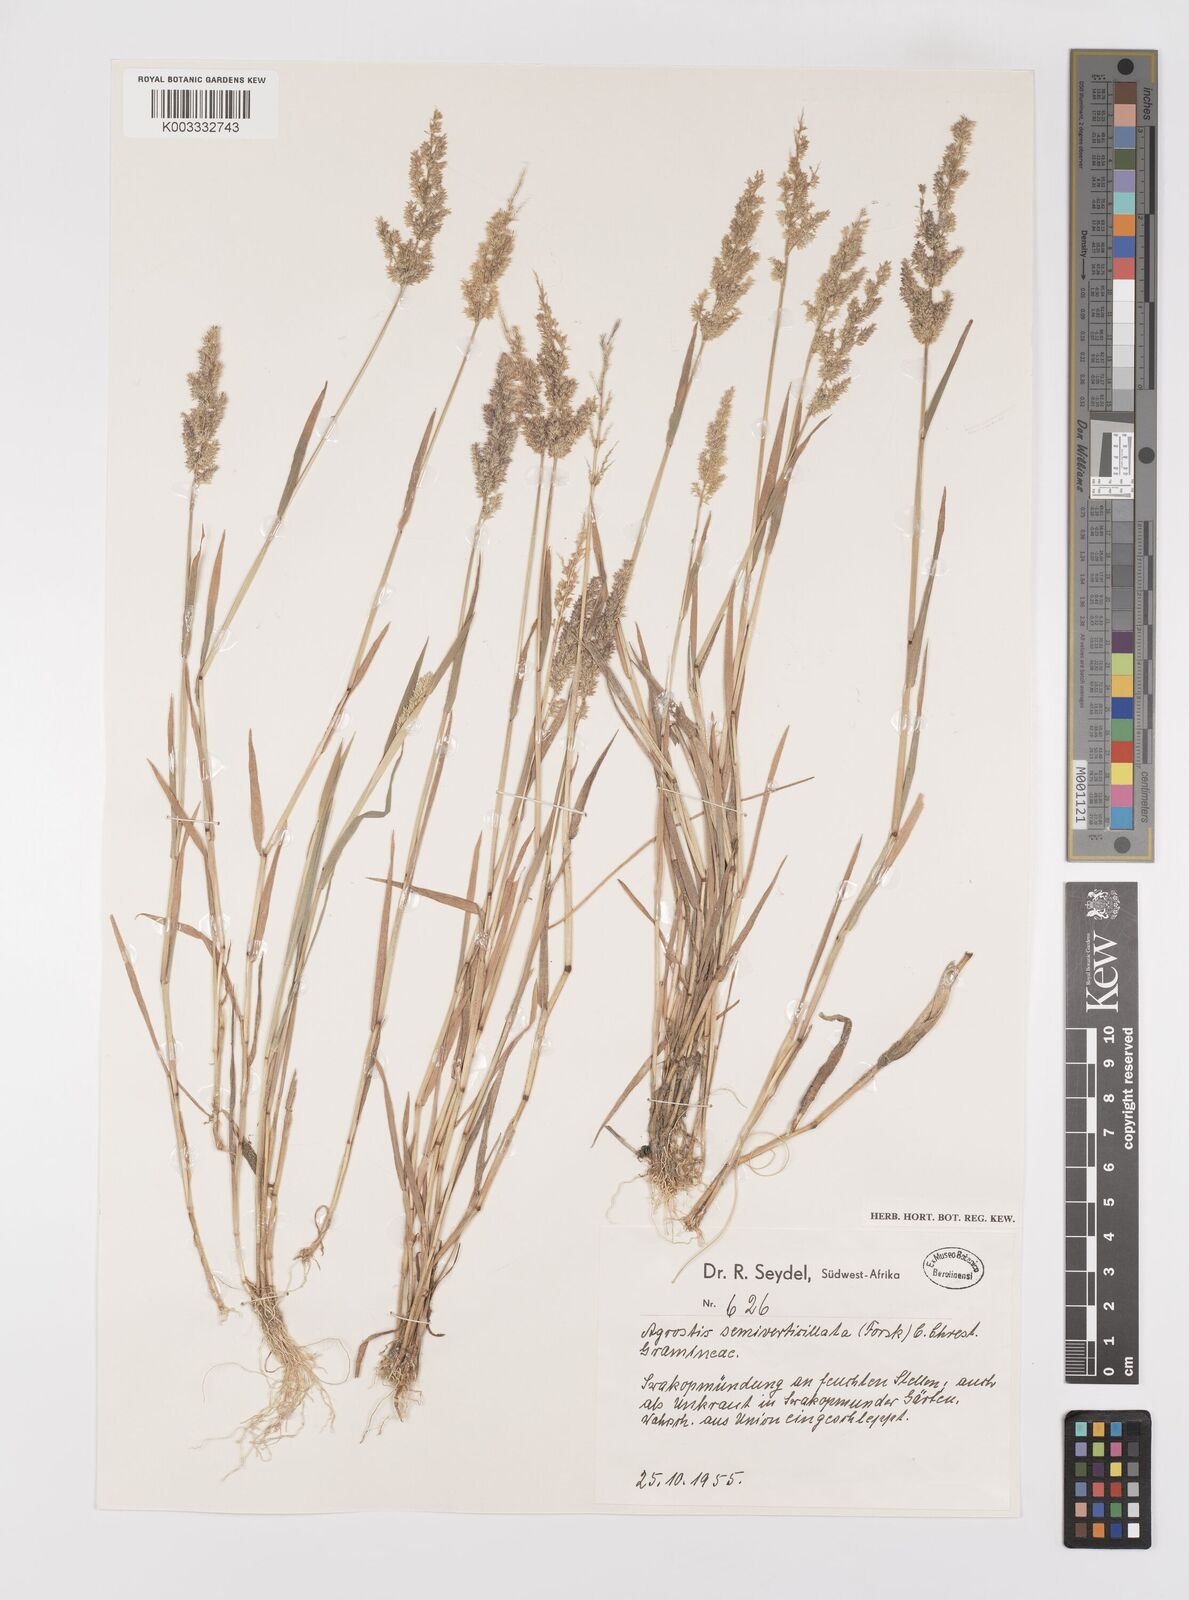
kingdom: Plantae
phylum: Tracheophyta
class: Liliopsida
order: Poales
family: Poaceae
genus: Polypogon
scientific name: Polypogon viridis
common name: Water bent
